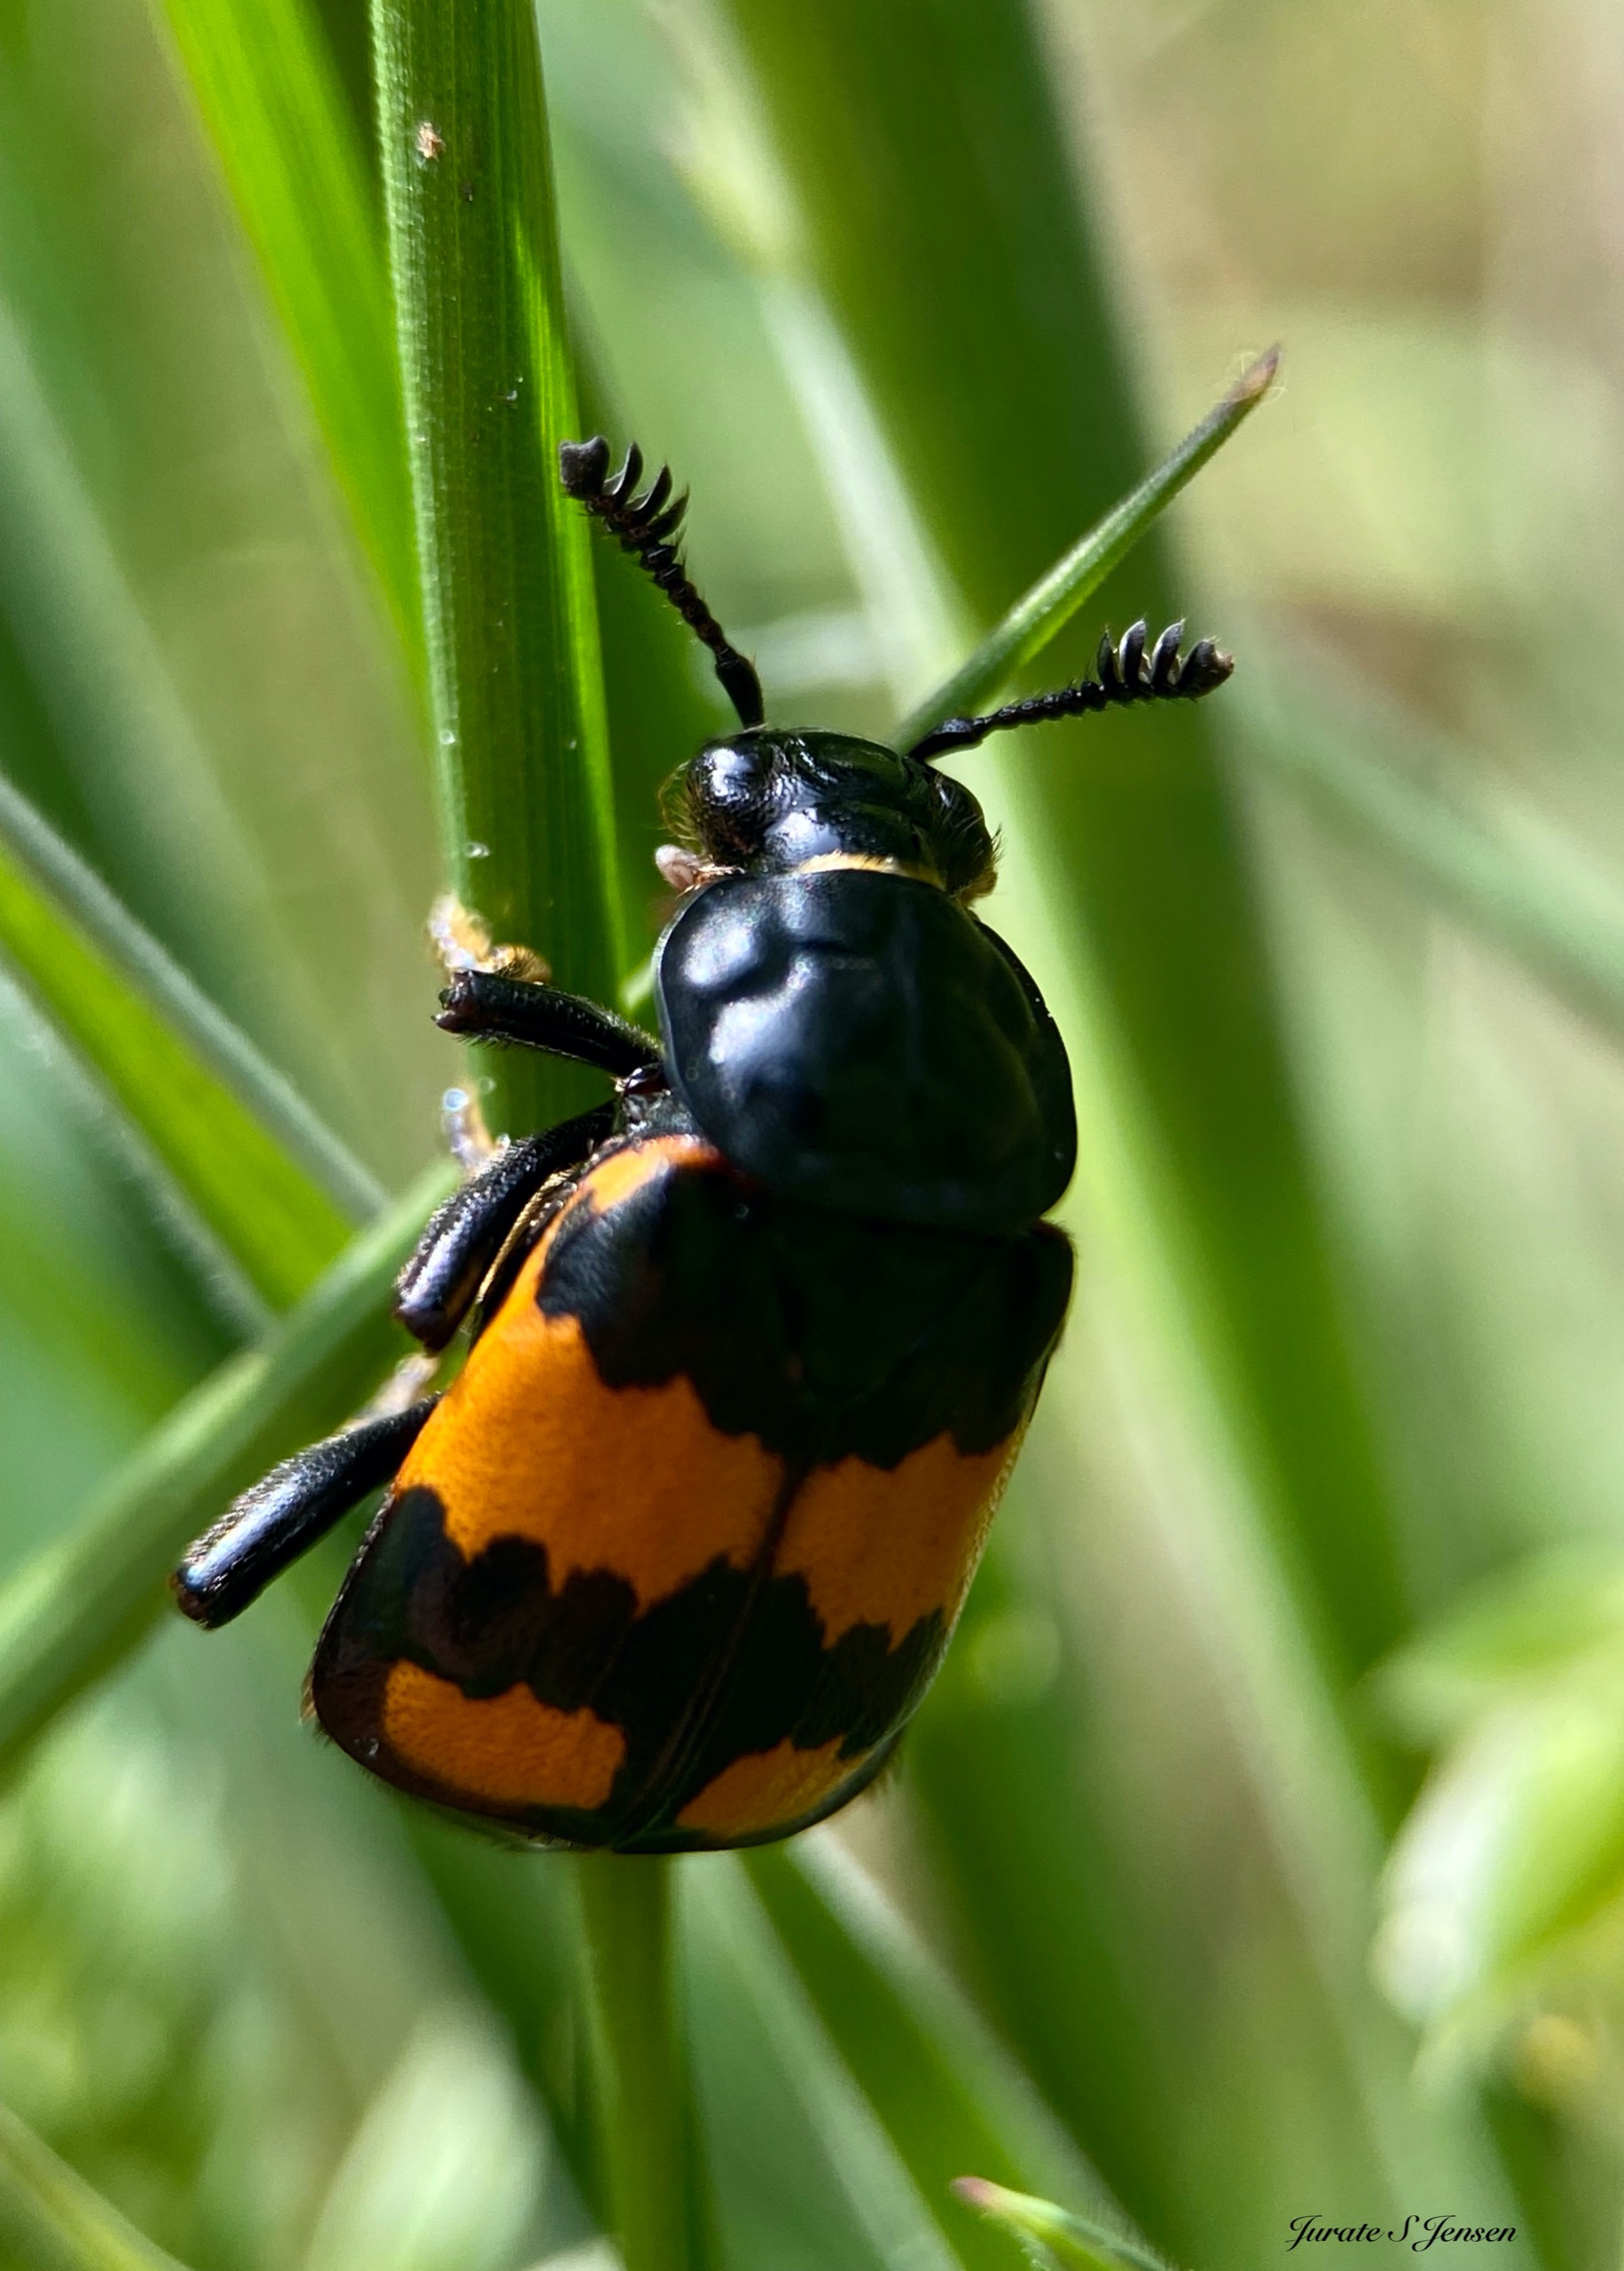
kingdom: Animalia
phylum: Arthropoda
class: Insecta
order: Coleoptera
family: Staphylinidae
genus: Nicrophorus
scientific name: Nicrophorus vespilloides
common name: Sortkøllet ådselgraver
